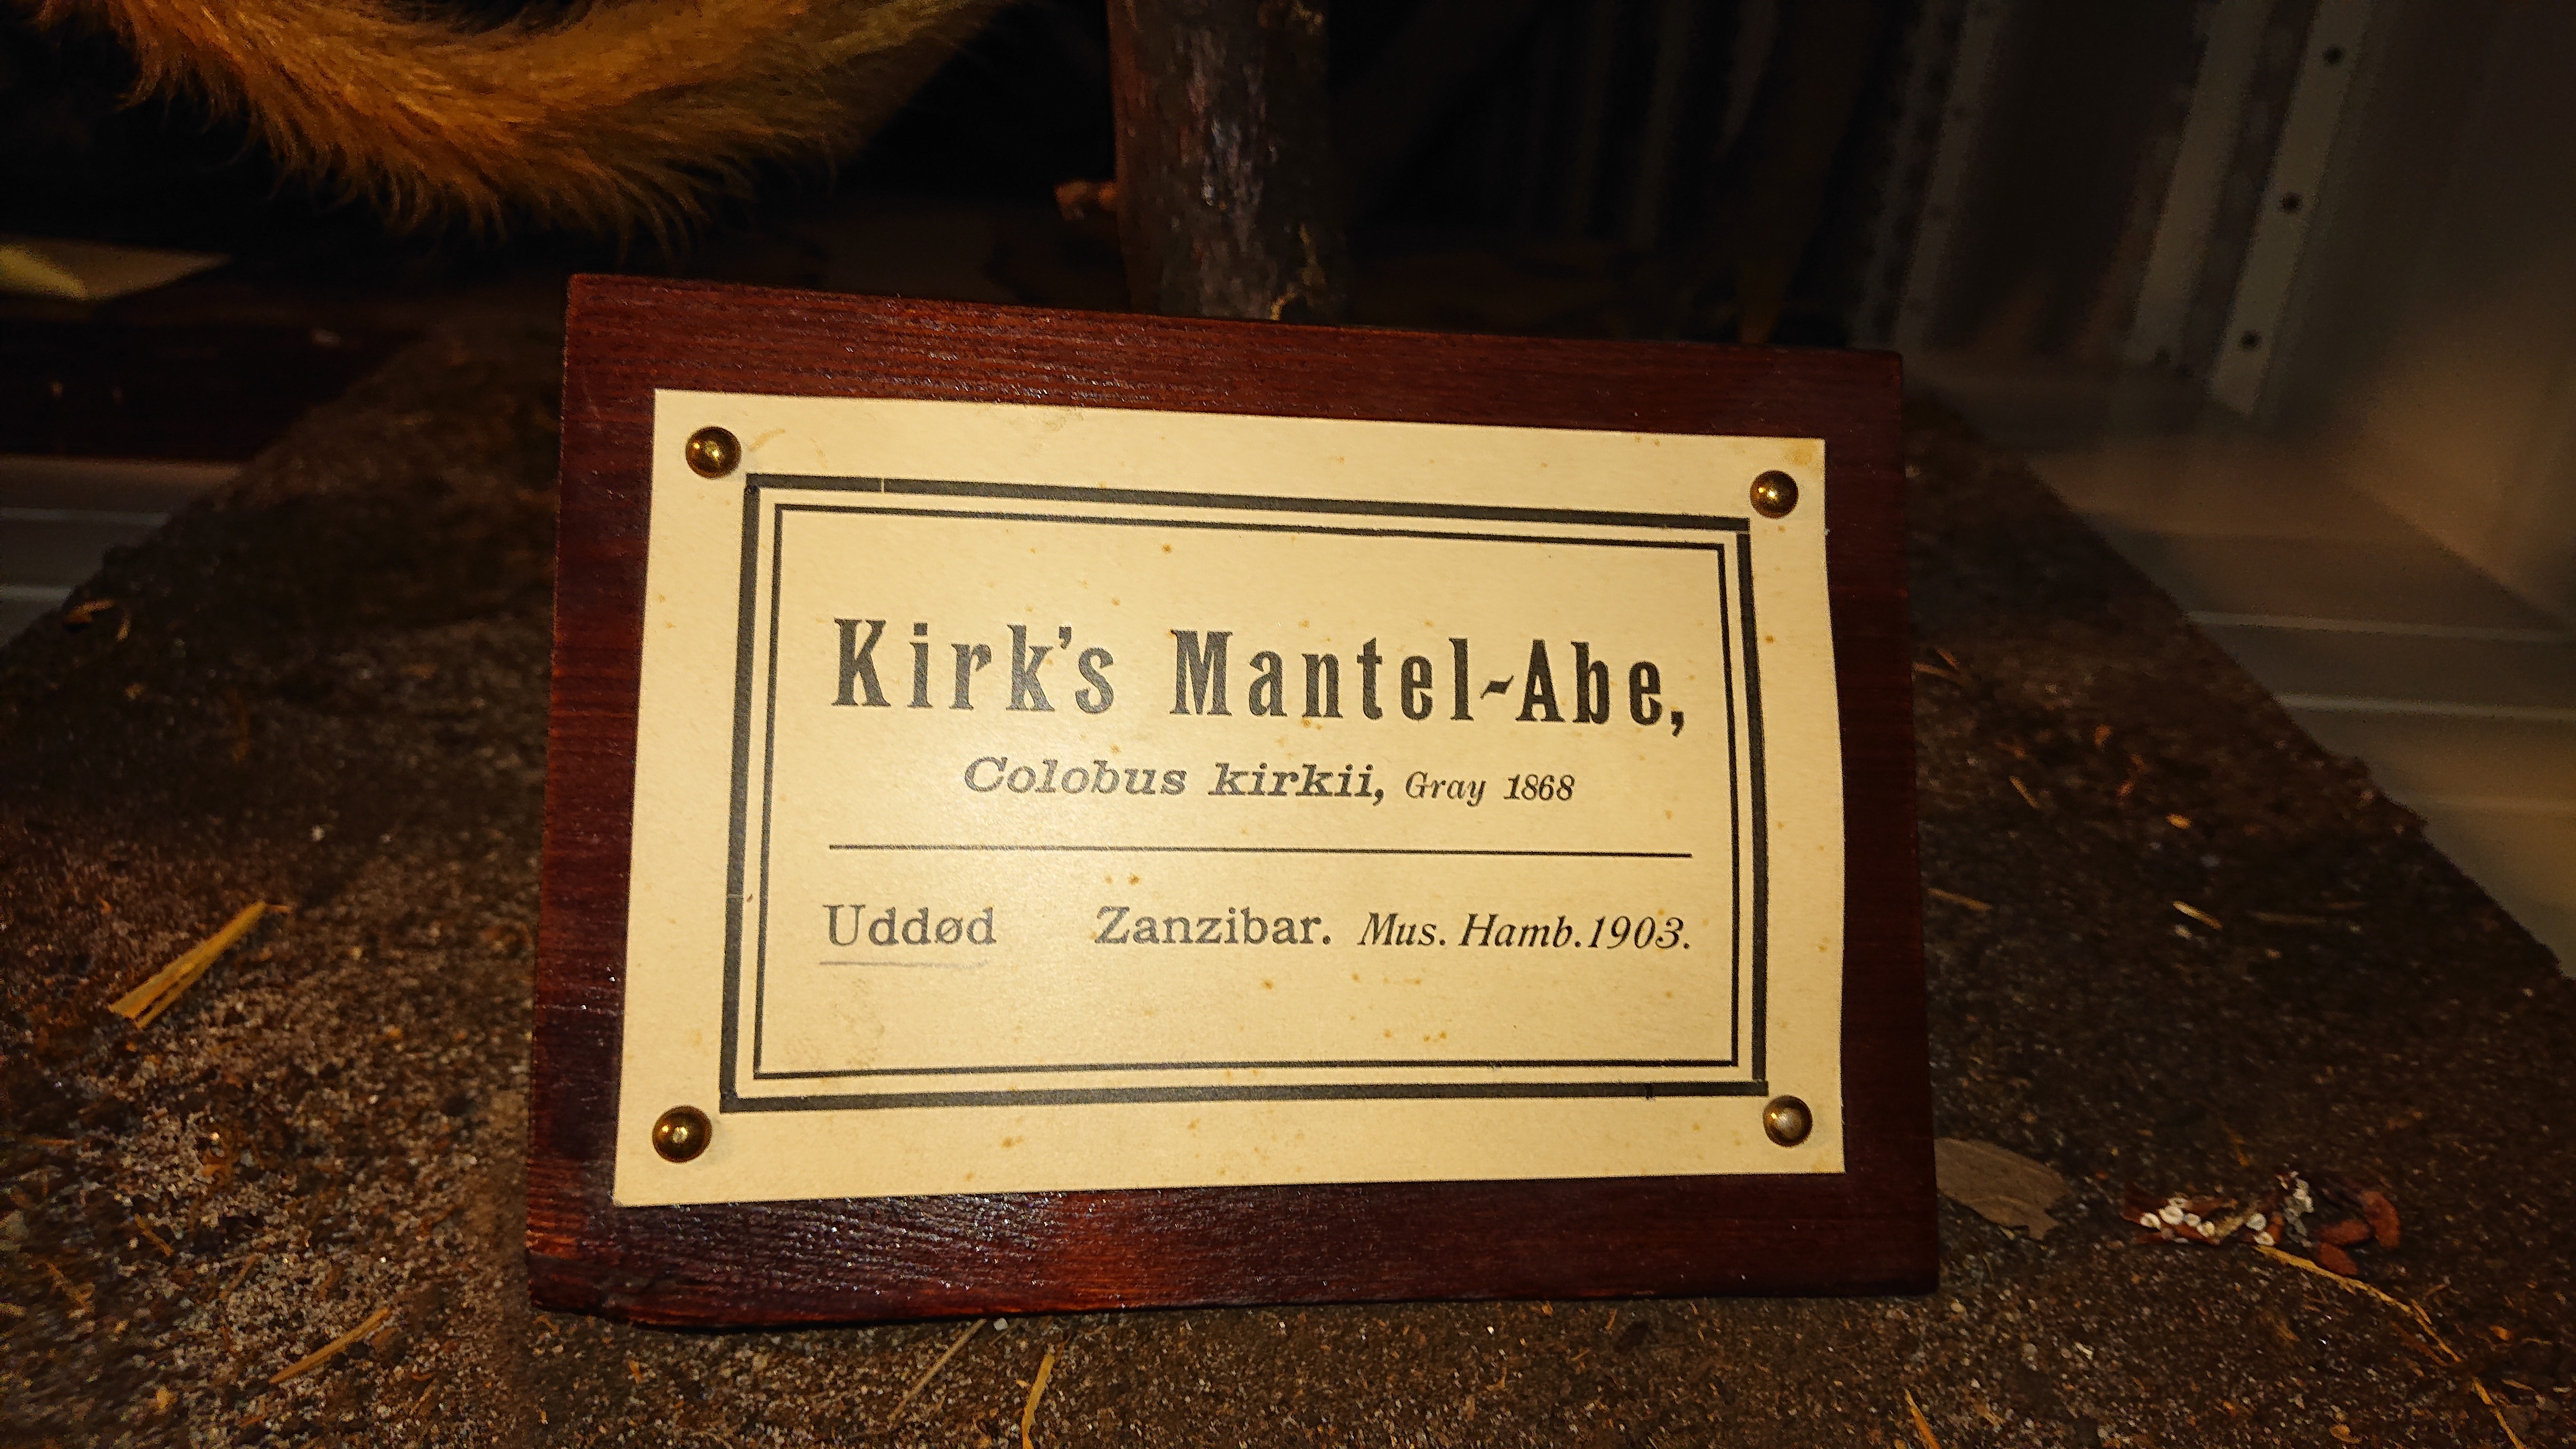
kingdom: Animalia
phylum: Chordata
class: Mammalia
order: Primates
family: Cercopithecidae
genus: Piliocolobus
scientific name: Piliocolobus kirkii
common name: Zanzibar red colobus
